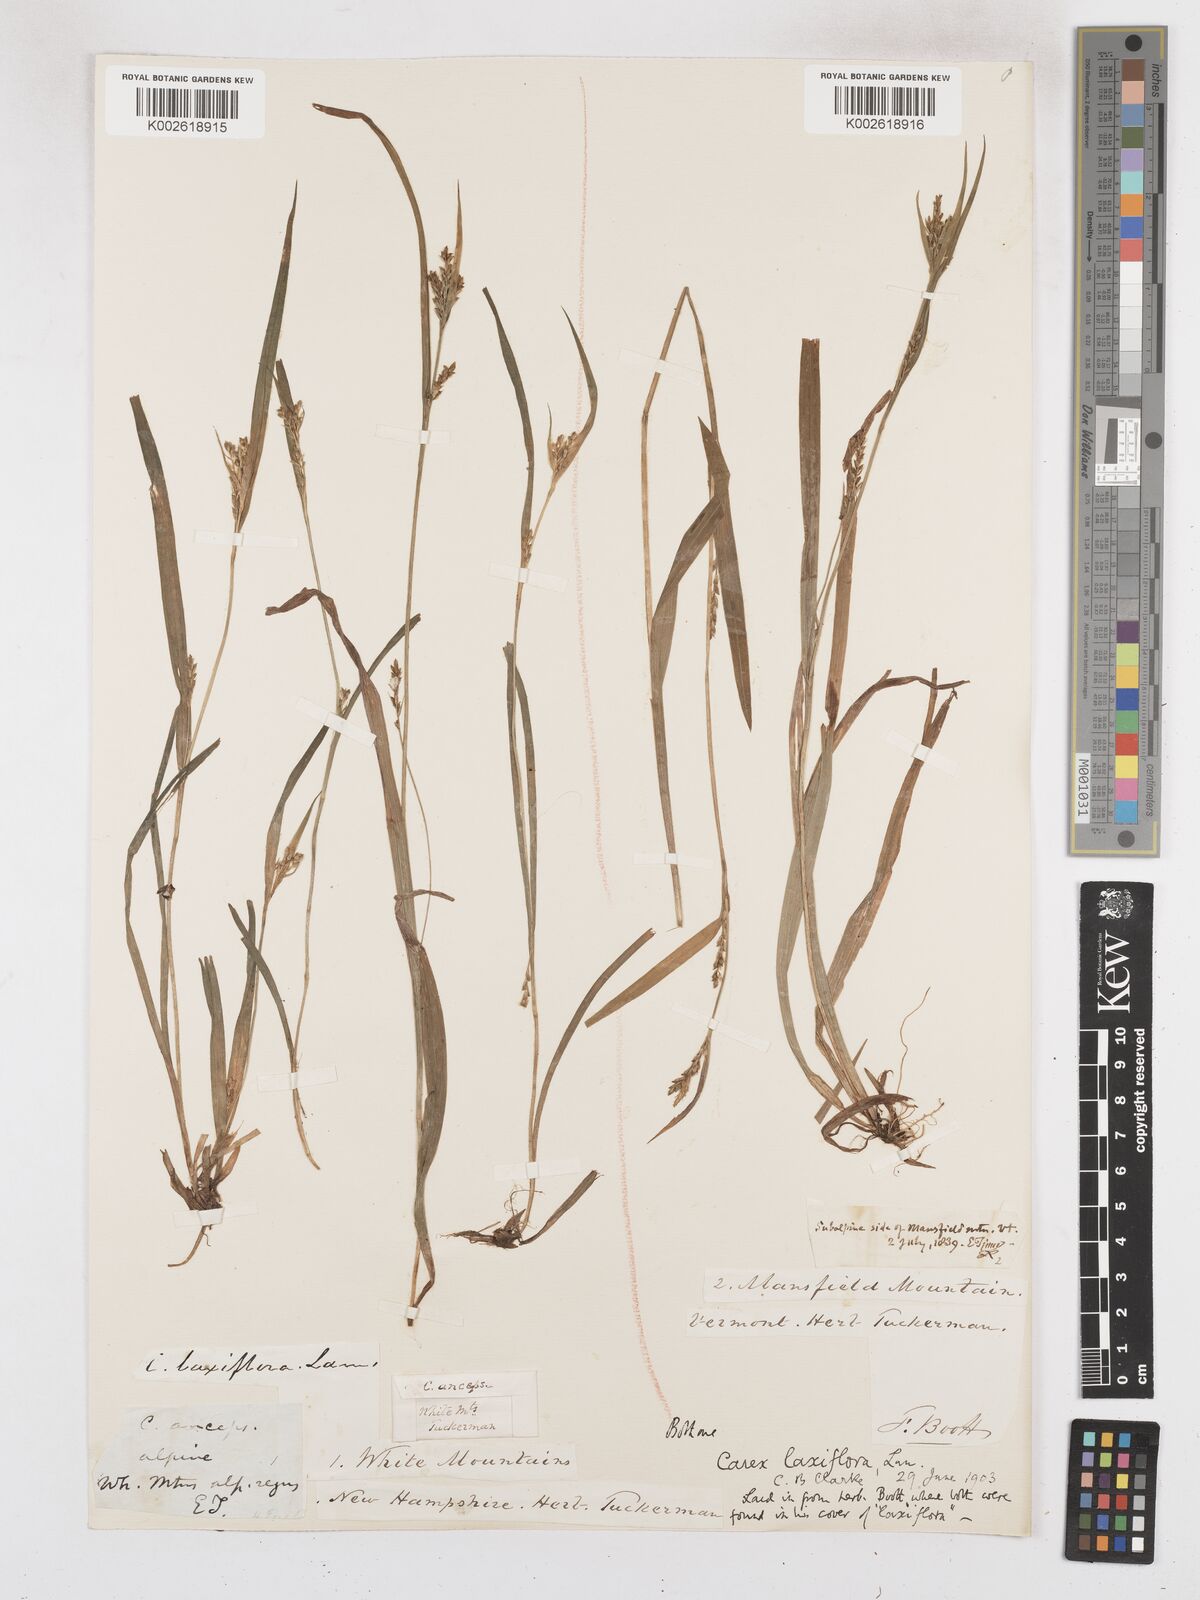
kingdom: Plantae
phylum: Tracheophyta
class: Liliopsida
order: Poales
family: Cyperaceae
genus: Carex
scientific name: Carex laxiflora
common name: Beech wood sedge
